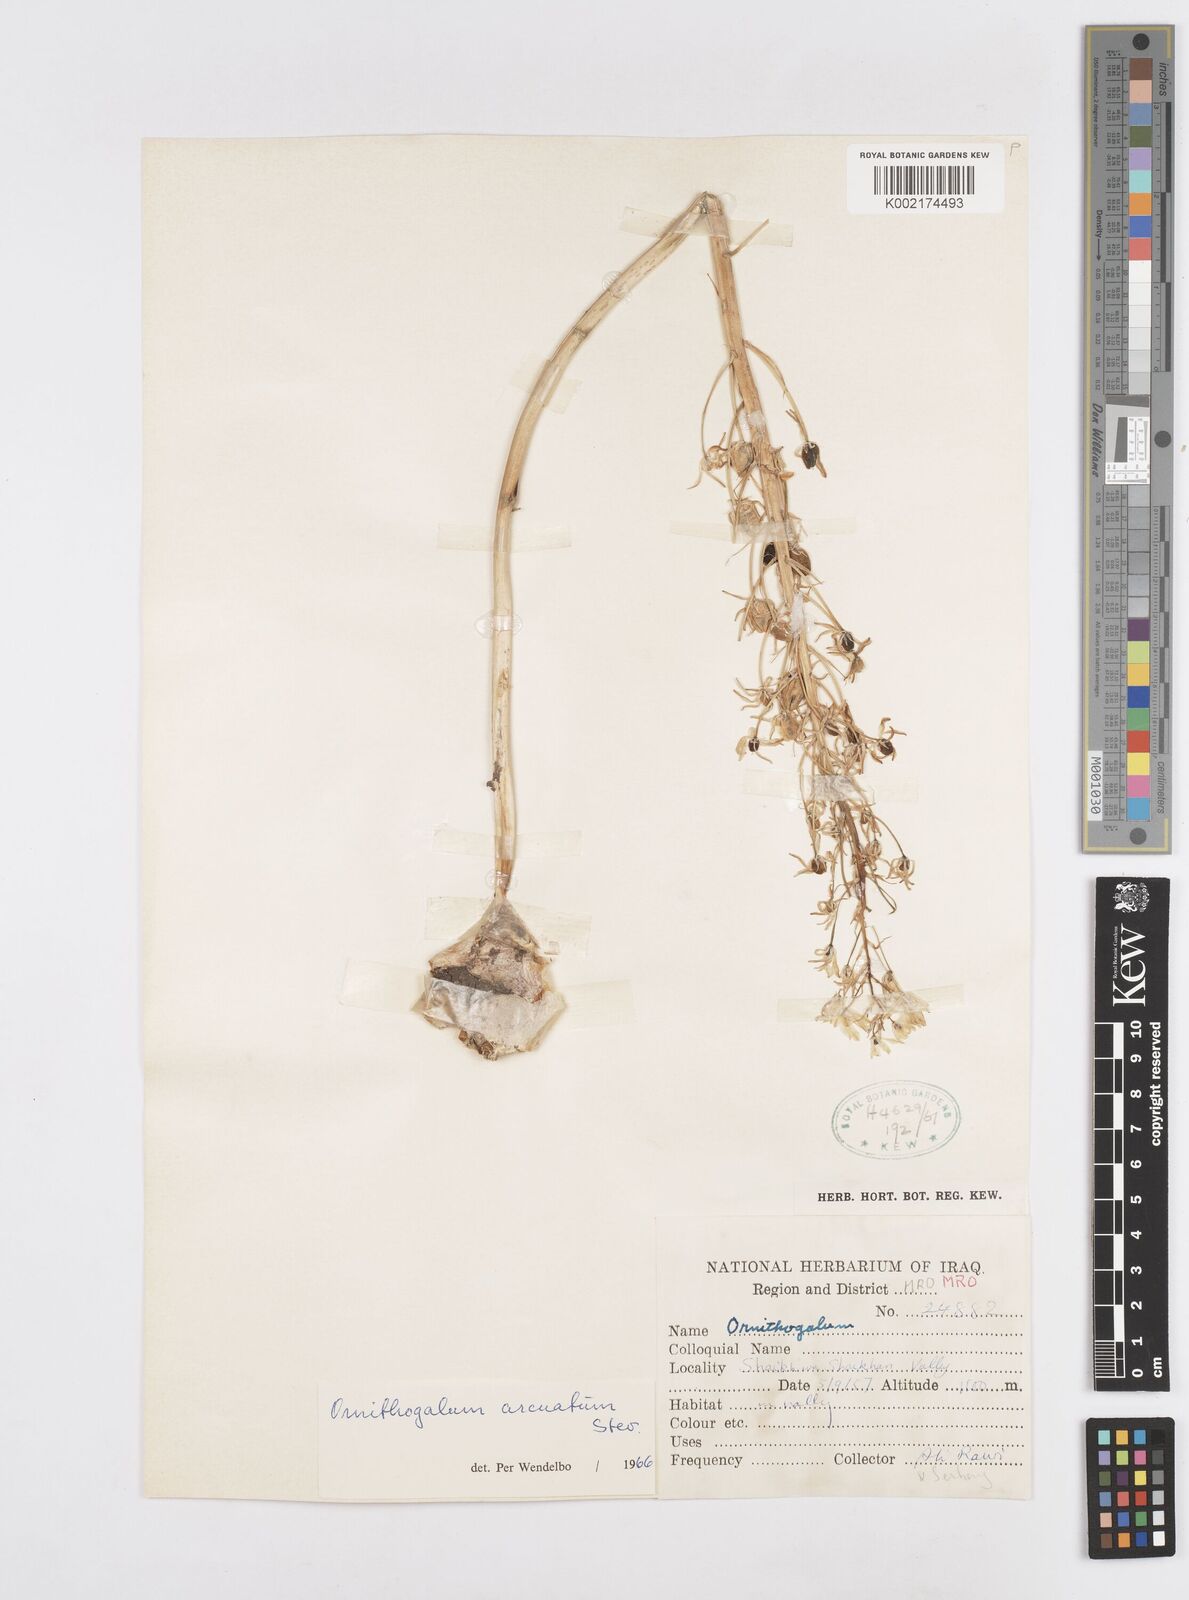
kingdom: Plantae
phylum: Tracheophyta
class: Liliopsida
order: Asparagales
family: Asparagaceae
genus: Ornithogalum
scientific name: Ornithogalum arcuatum
